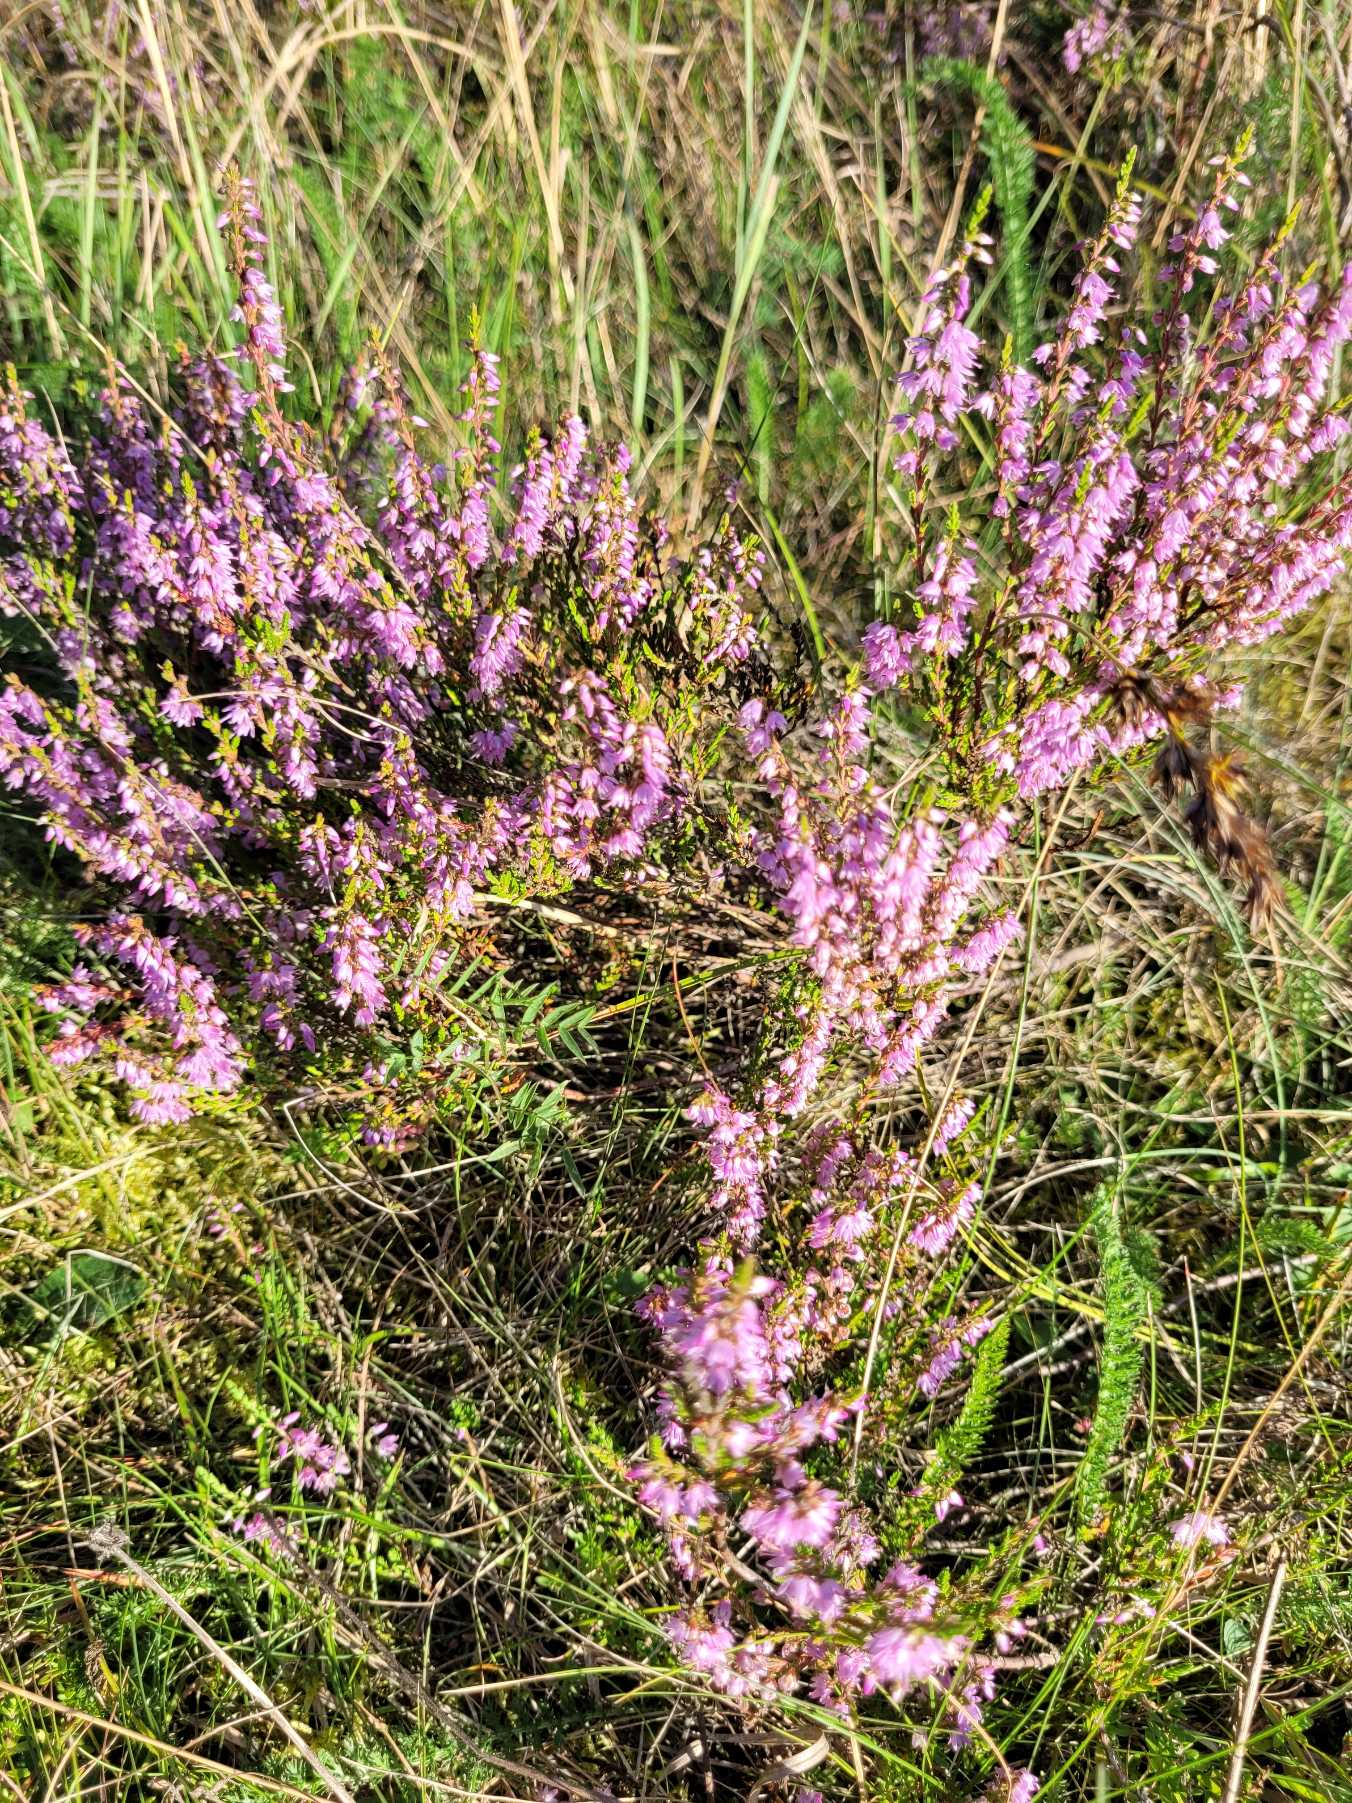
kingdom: Plantae
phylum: Tracheophyta
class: Magnoliopsida
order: Ericales
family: Ericaceae
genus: Calluna
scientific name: Calluna vulgaris
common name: Hedelyng
